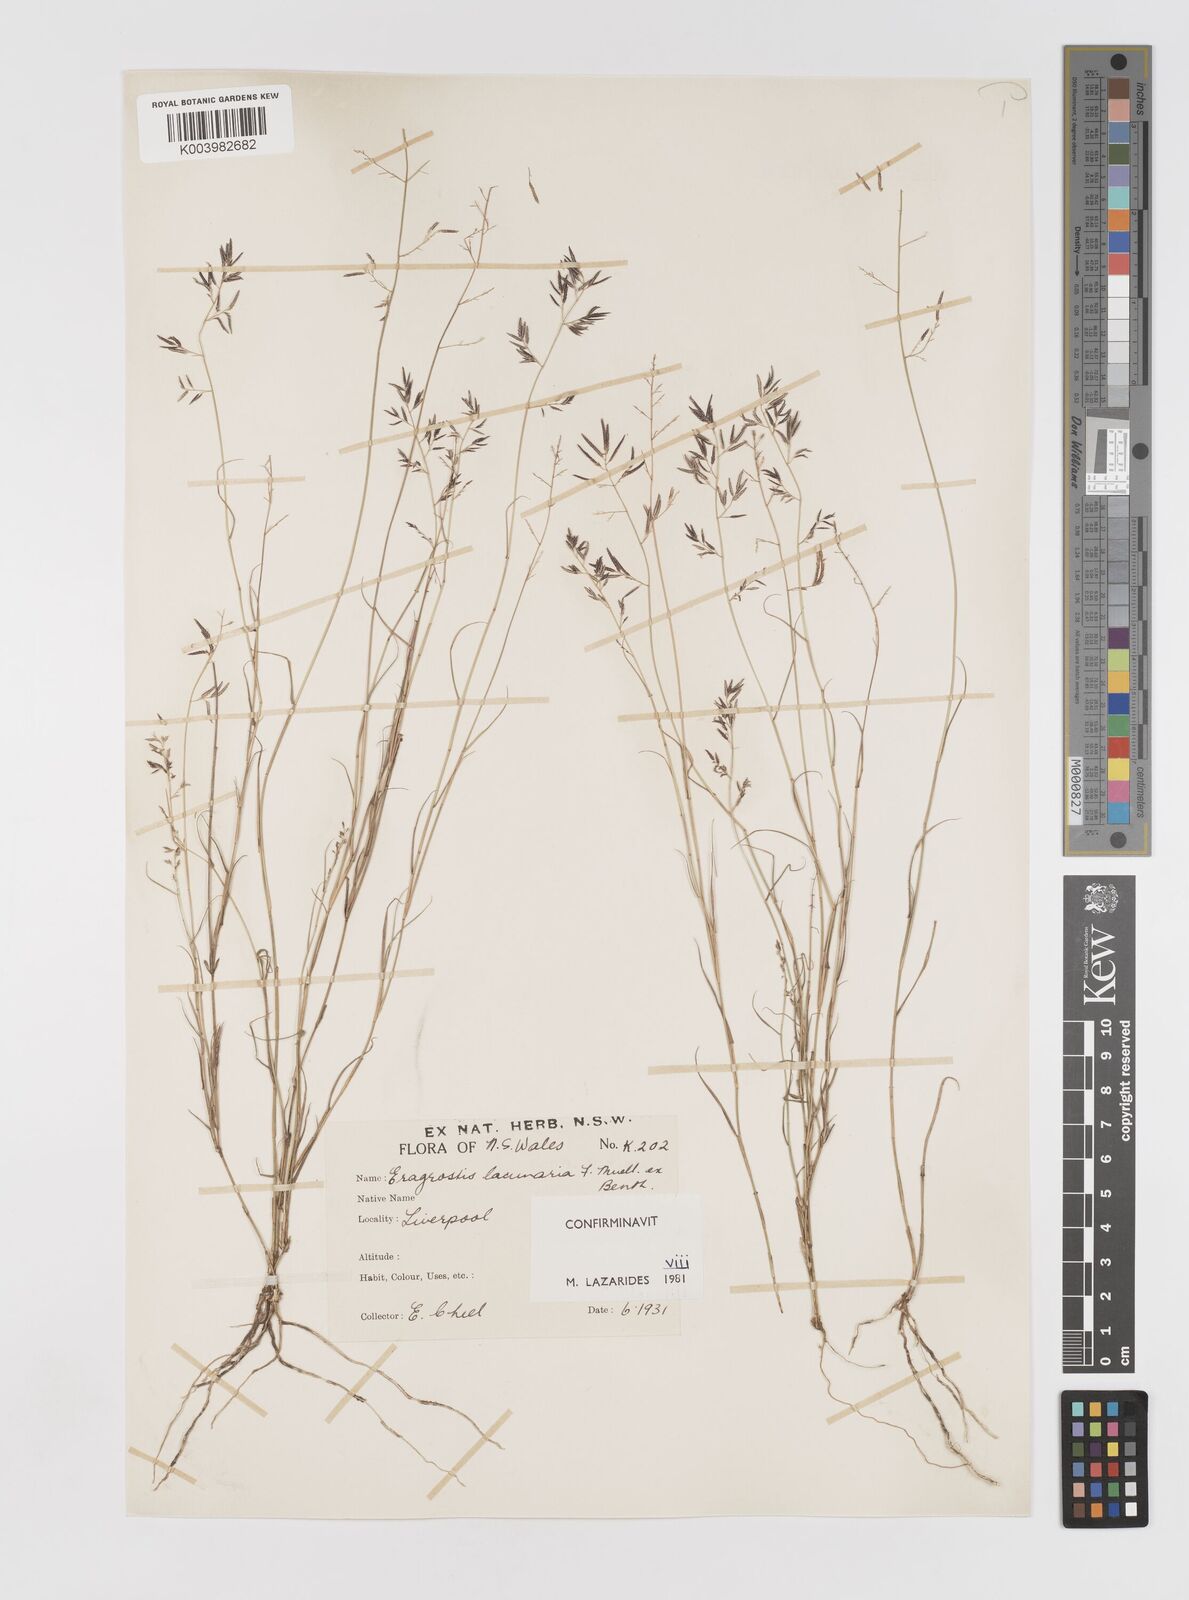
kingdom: Plantae
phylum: Tracheophyta
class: Liliopsida
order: Poales
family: Poaceae
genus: Eragrostis
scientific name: Eragrostis lacunaria
